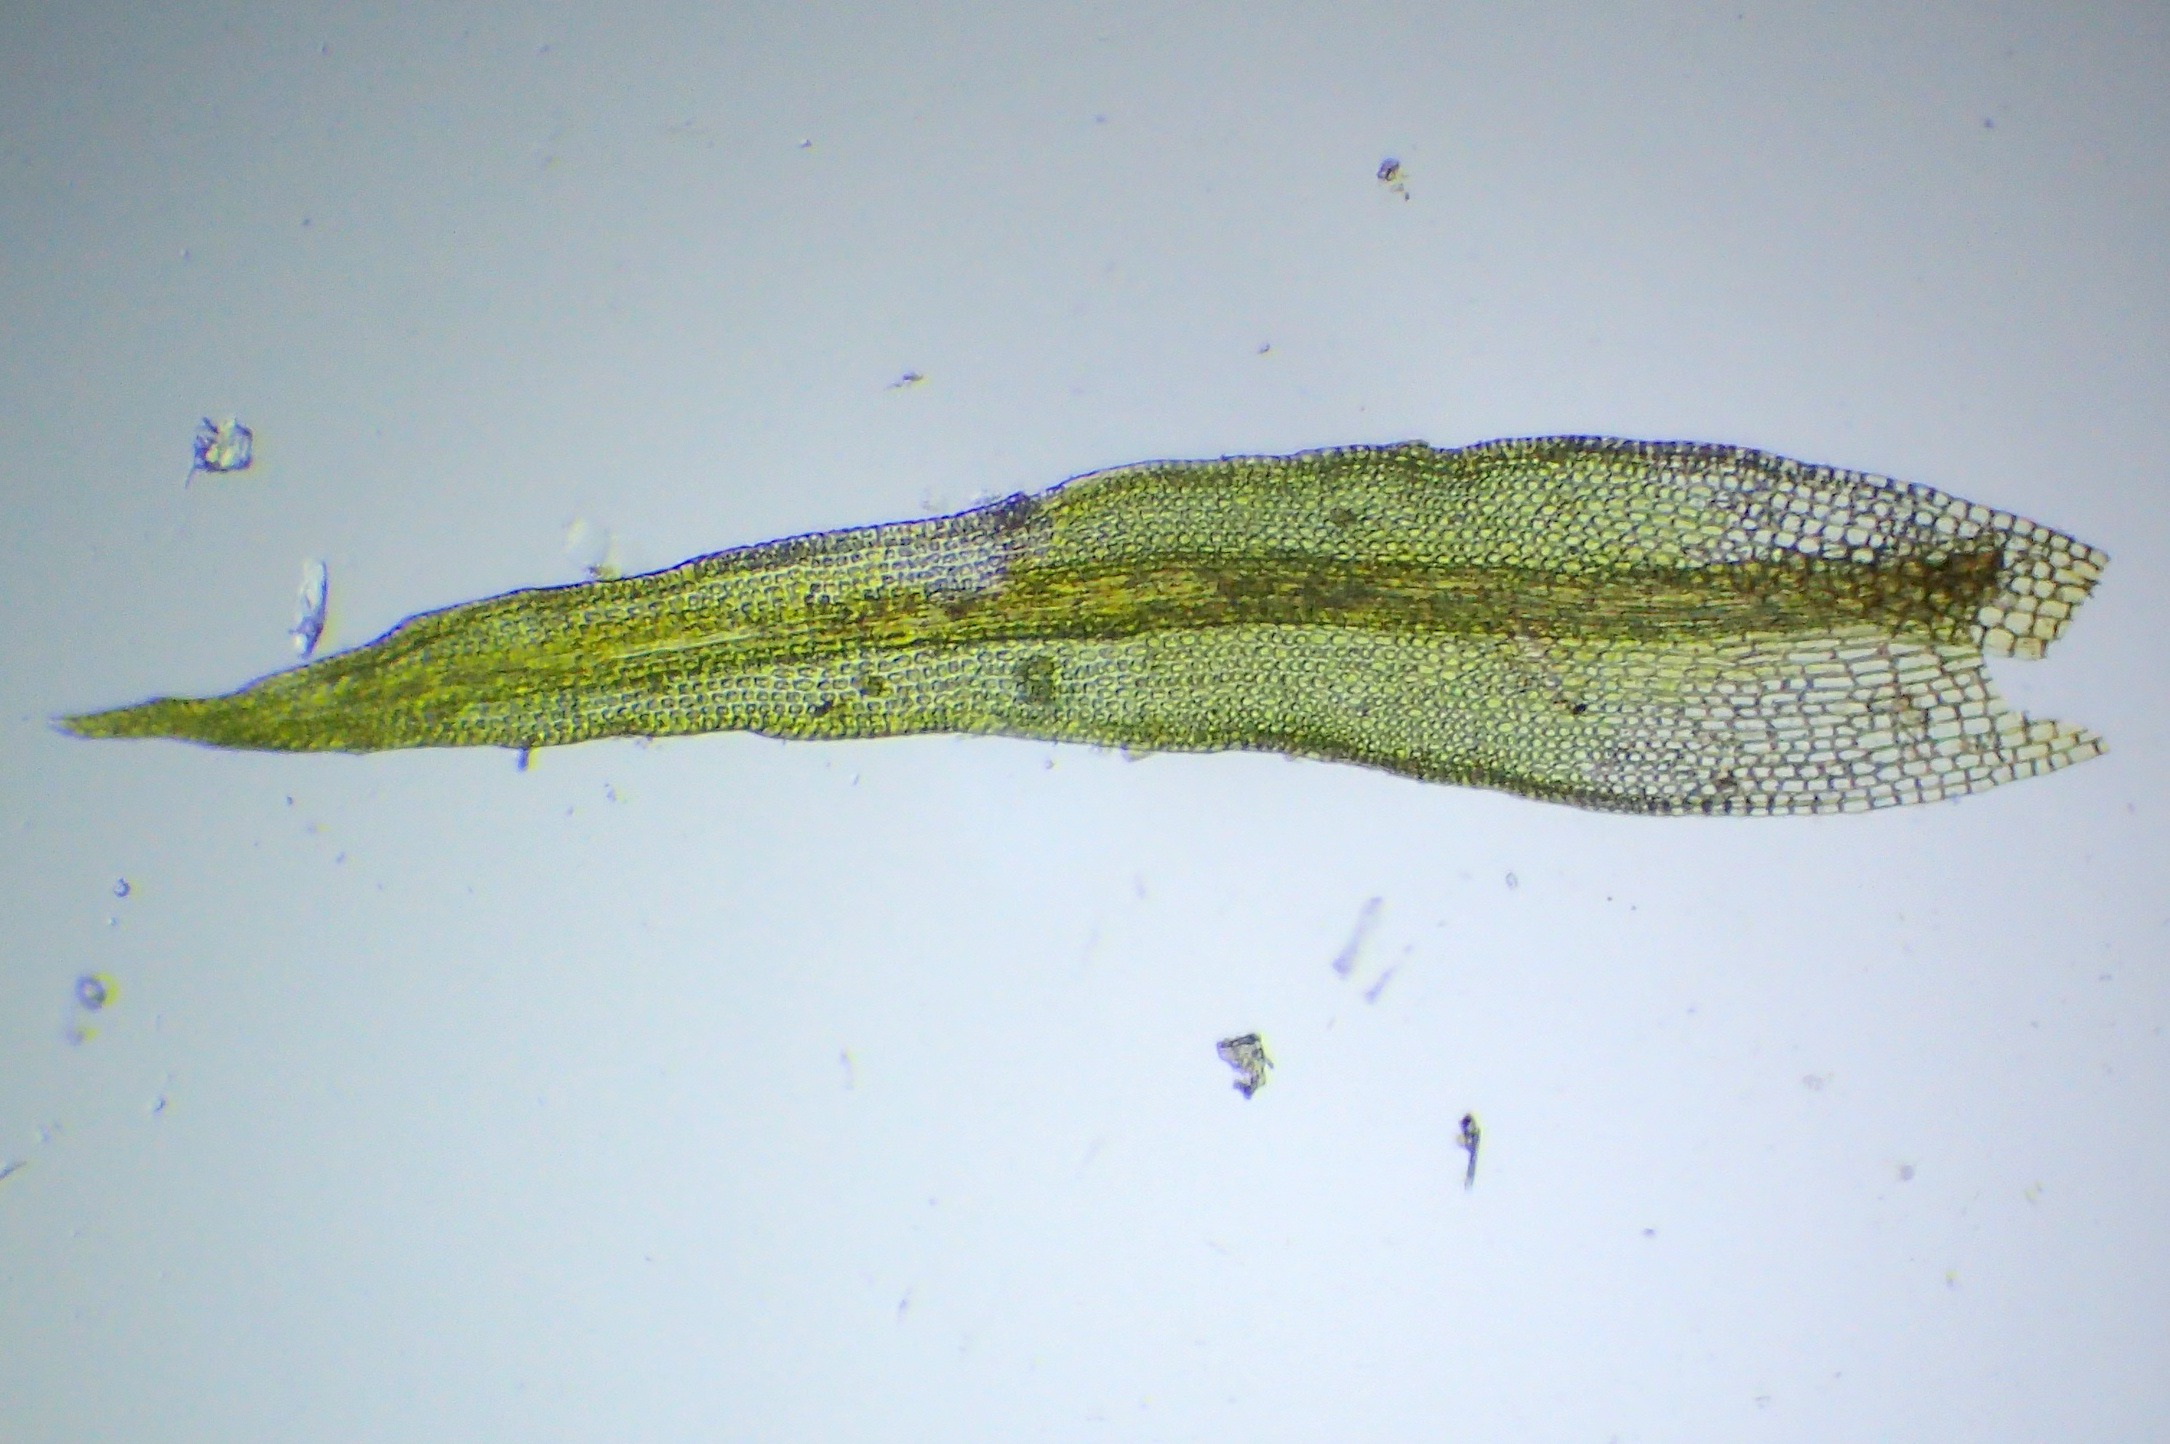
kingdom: Plantae
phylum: Bryophyta
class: Bryopsida
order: Dicranales
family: Rhabdoweisiaceae
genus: Dicranoweisia
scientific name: Dicranoweisia cirrata
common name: Almindelig krøltuemos
